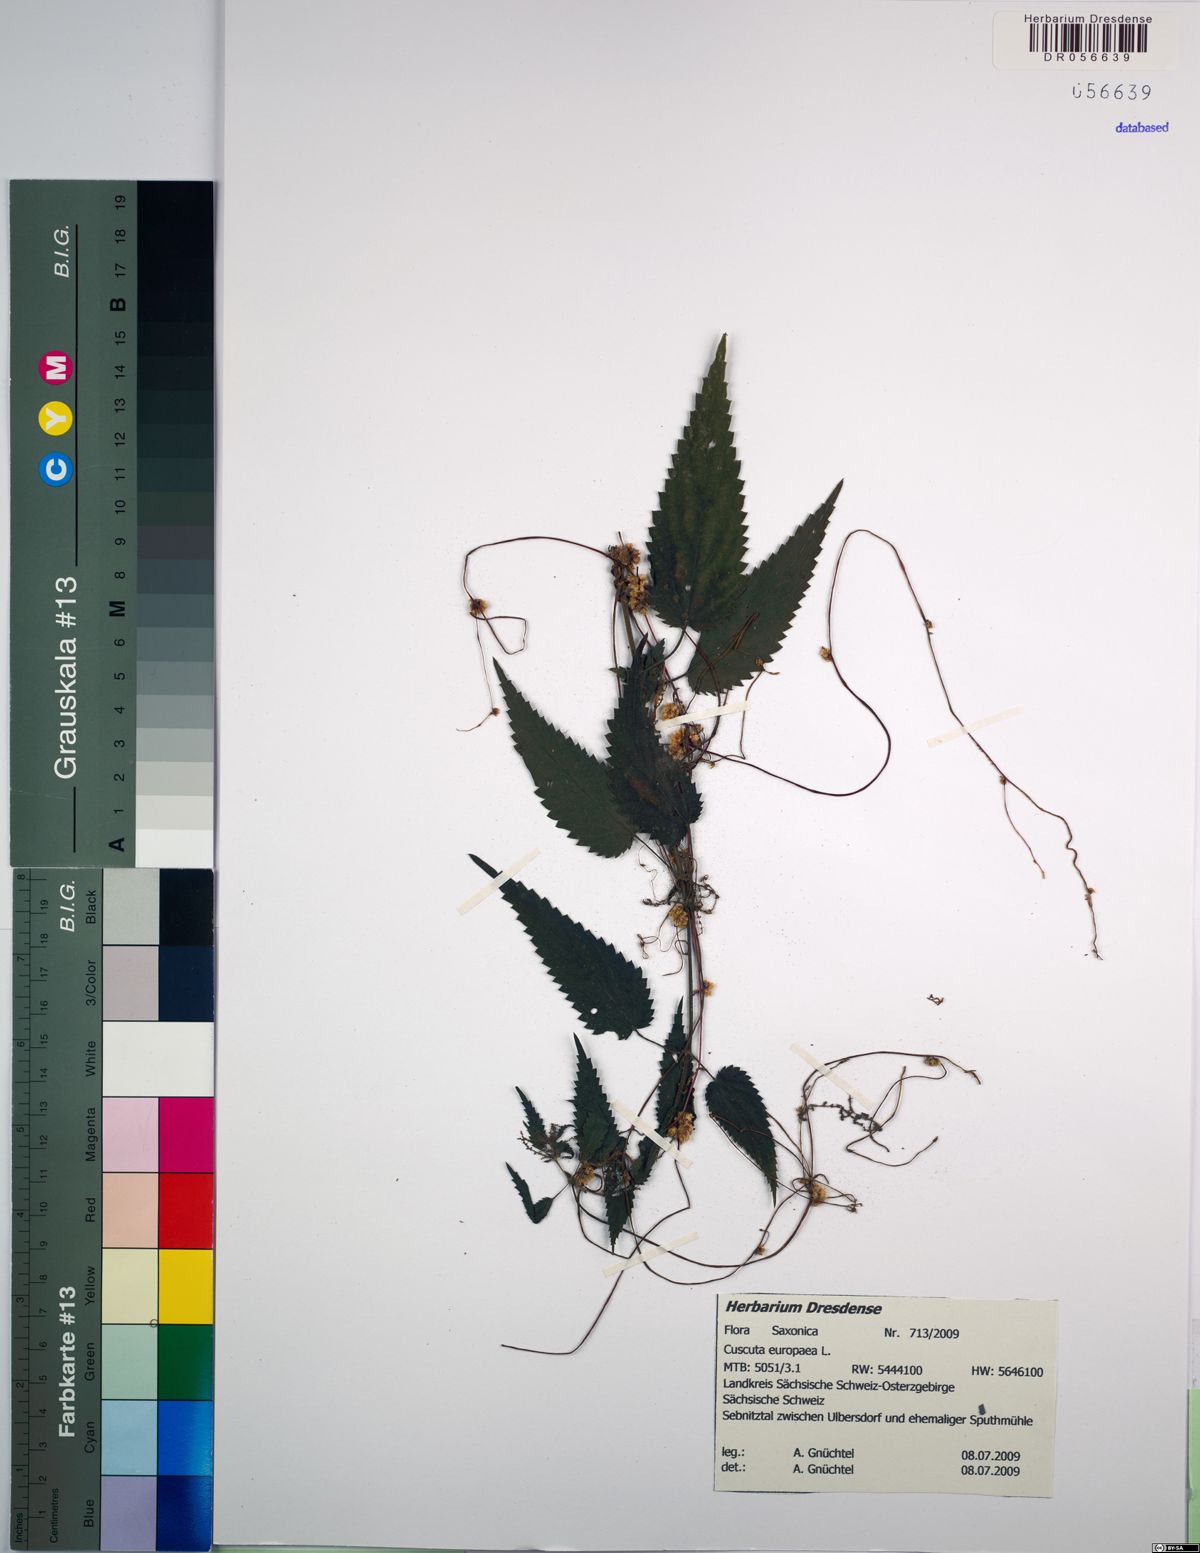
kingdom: Plantae
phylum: Tracheophyta
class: Magnoliopsida
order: Solanales
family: Convolvulaceae
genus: Cuscuta
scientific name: Cuscuta europaea
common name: Greater dodder
